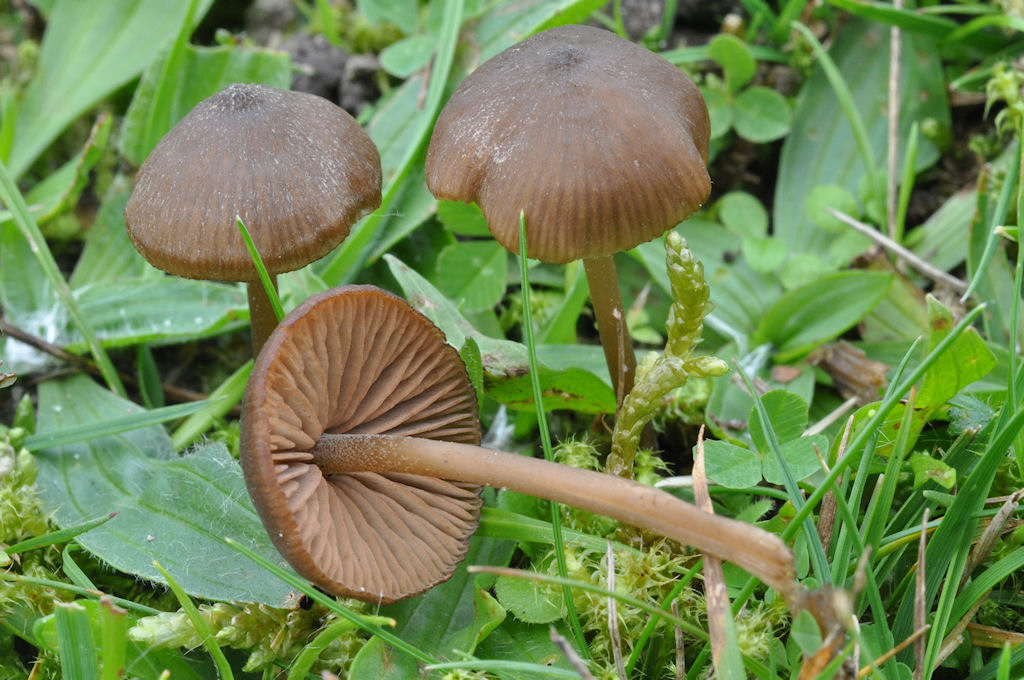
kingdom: Fungi
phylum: Basidiomycota
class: Agaricomycetes
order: Agaricales
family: Entolomataceae
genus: Entoloma
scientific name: Entoloma clandestinum
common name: tykbladet rødblad
